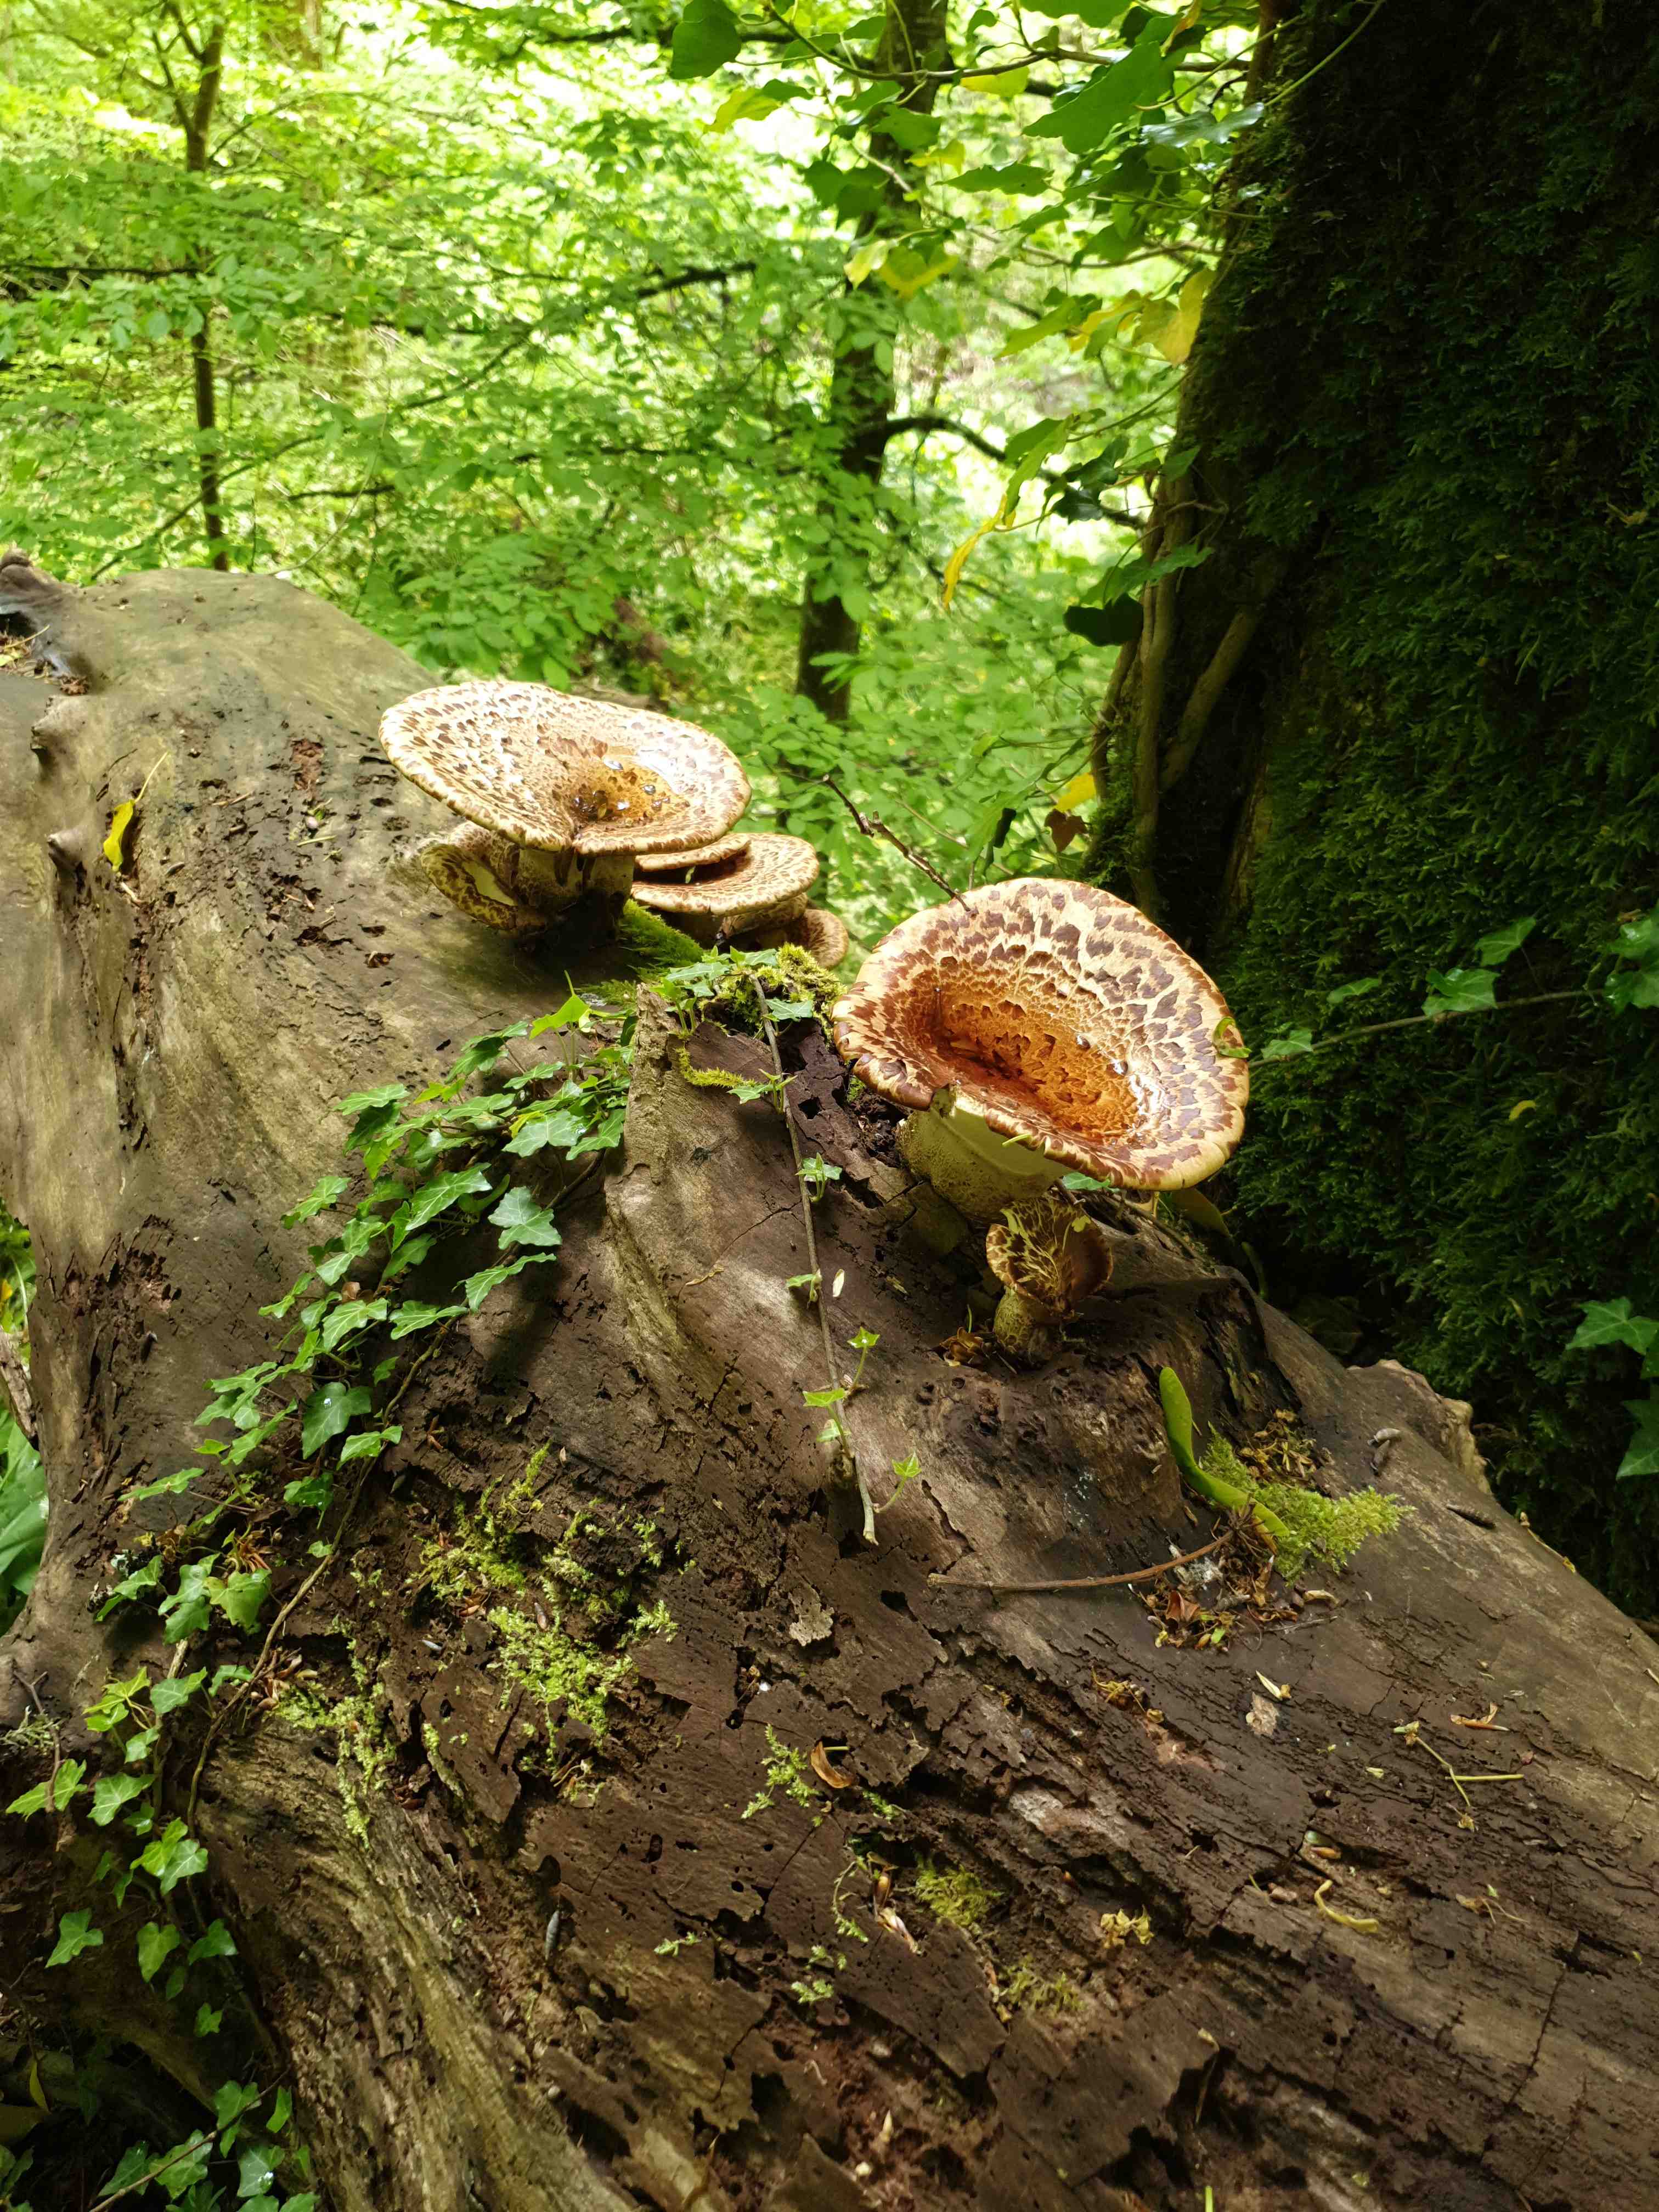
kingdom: Fungi
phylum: Basidiomycota
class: Agaricomycetes
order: Polyporales
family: Polyporaceae
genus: Cerioporus
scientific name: Cerioporus squamosus
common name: skællet stilkporesvamp
